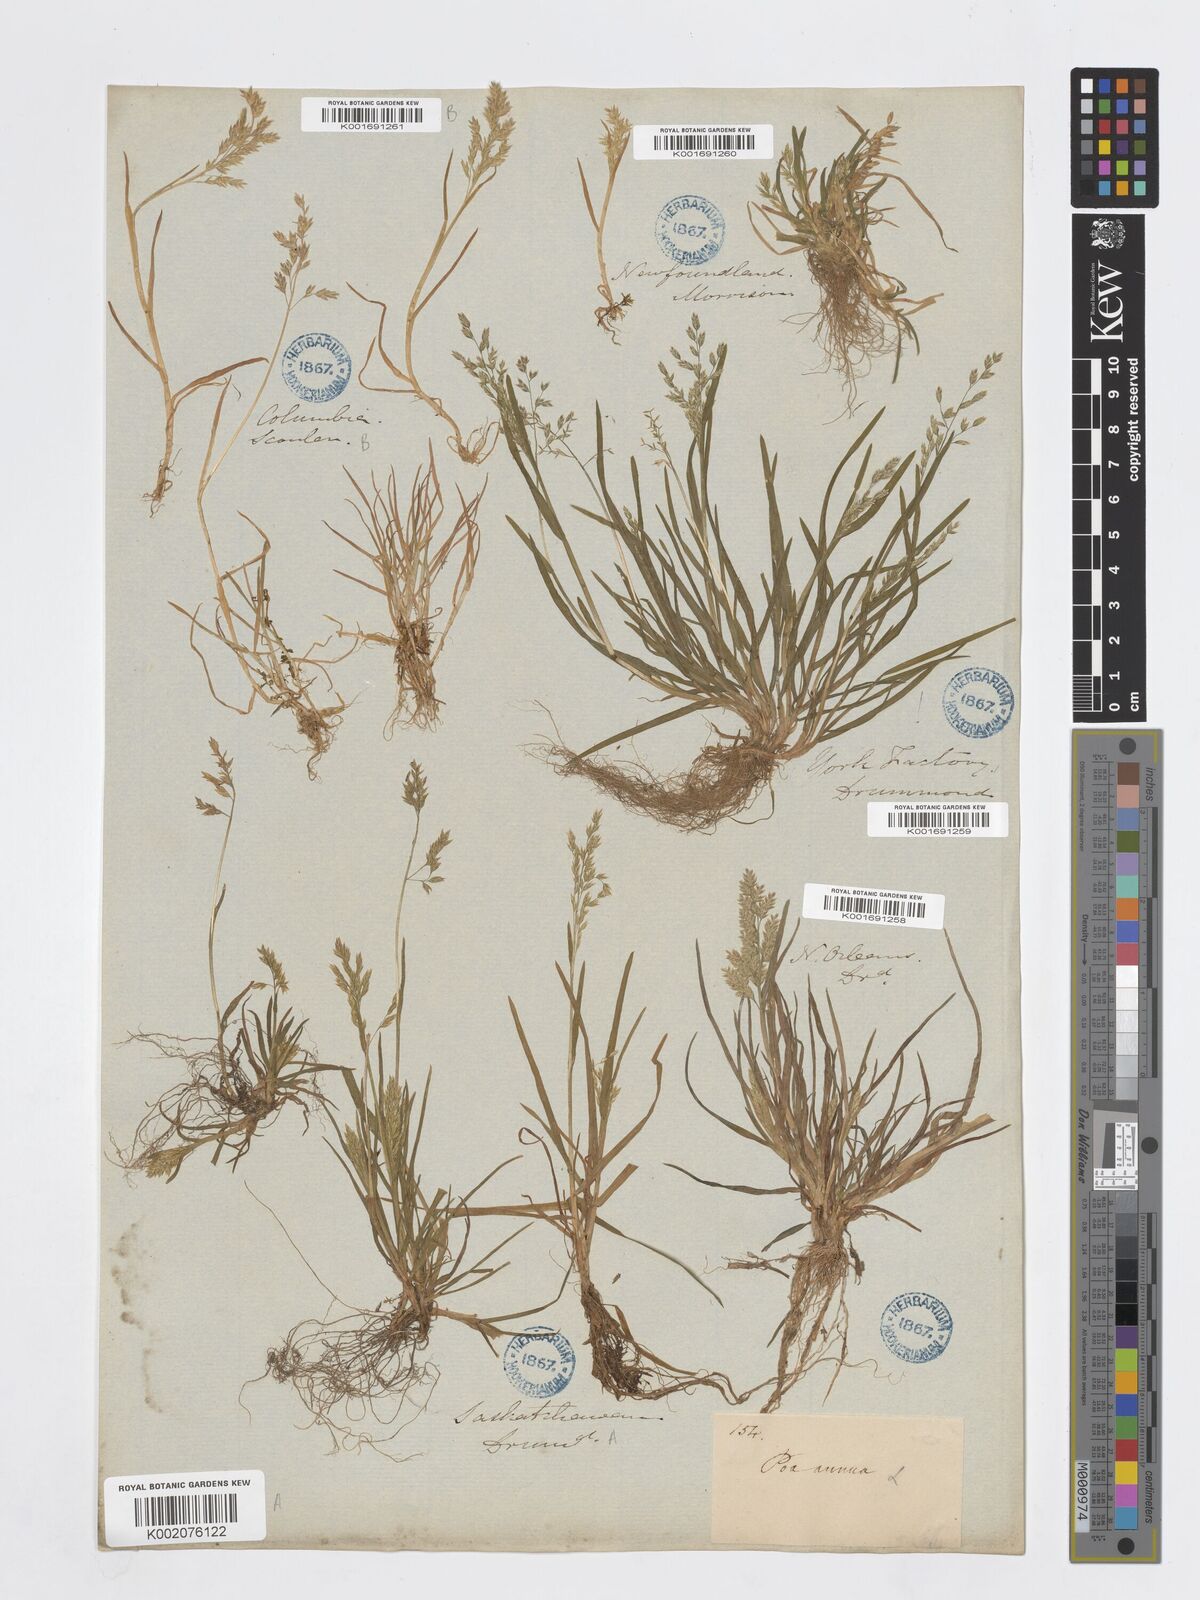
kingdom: Plantae
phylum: Tracheophyta
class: Liliopsida
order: Poales
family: Poaceae
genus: Poa
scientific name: Poa annua
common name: Annual bluegrass
